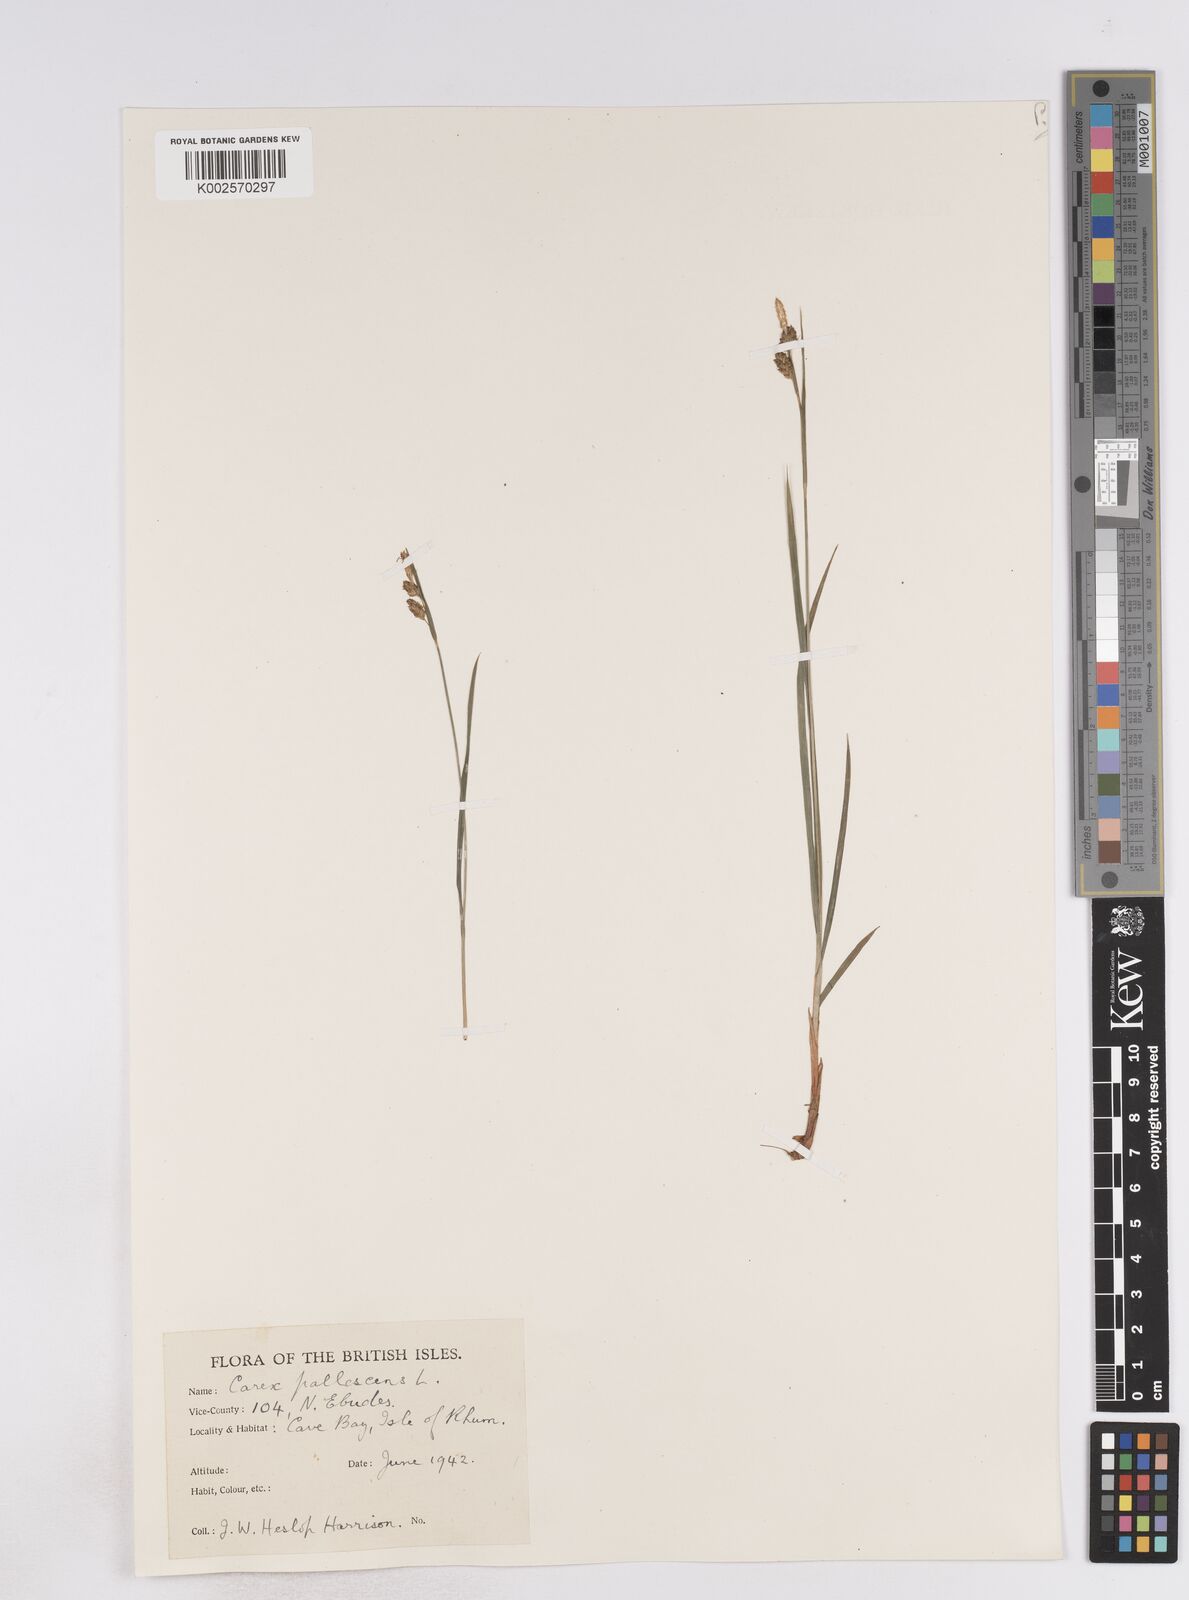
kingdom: Plantae
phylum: Tracheophyta
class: Liliopsida
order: Poales
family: Cyperaceae
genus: Carex
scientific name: Carex pallescens
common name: Pale sedge
